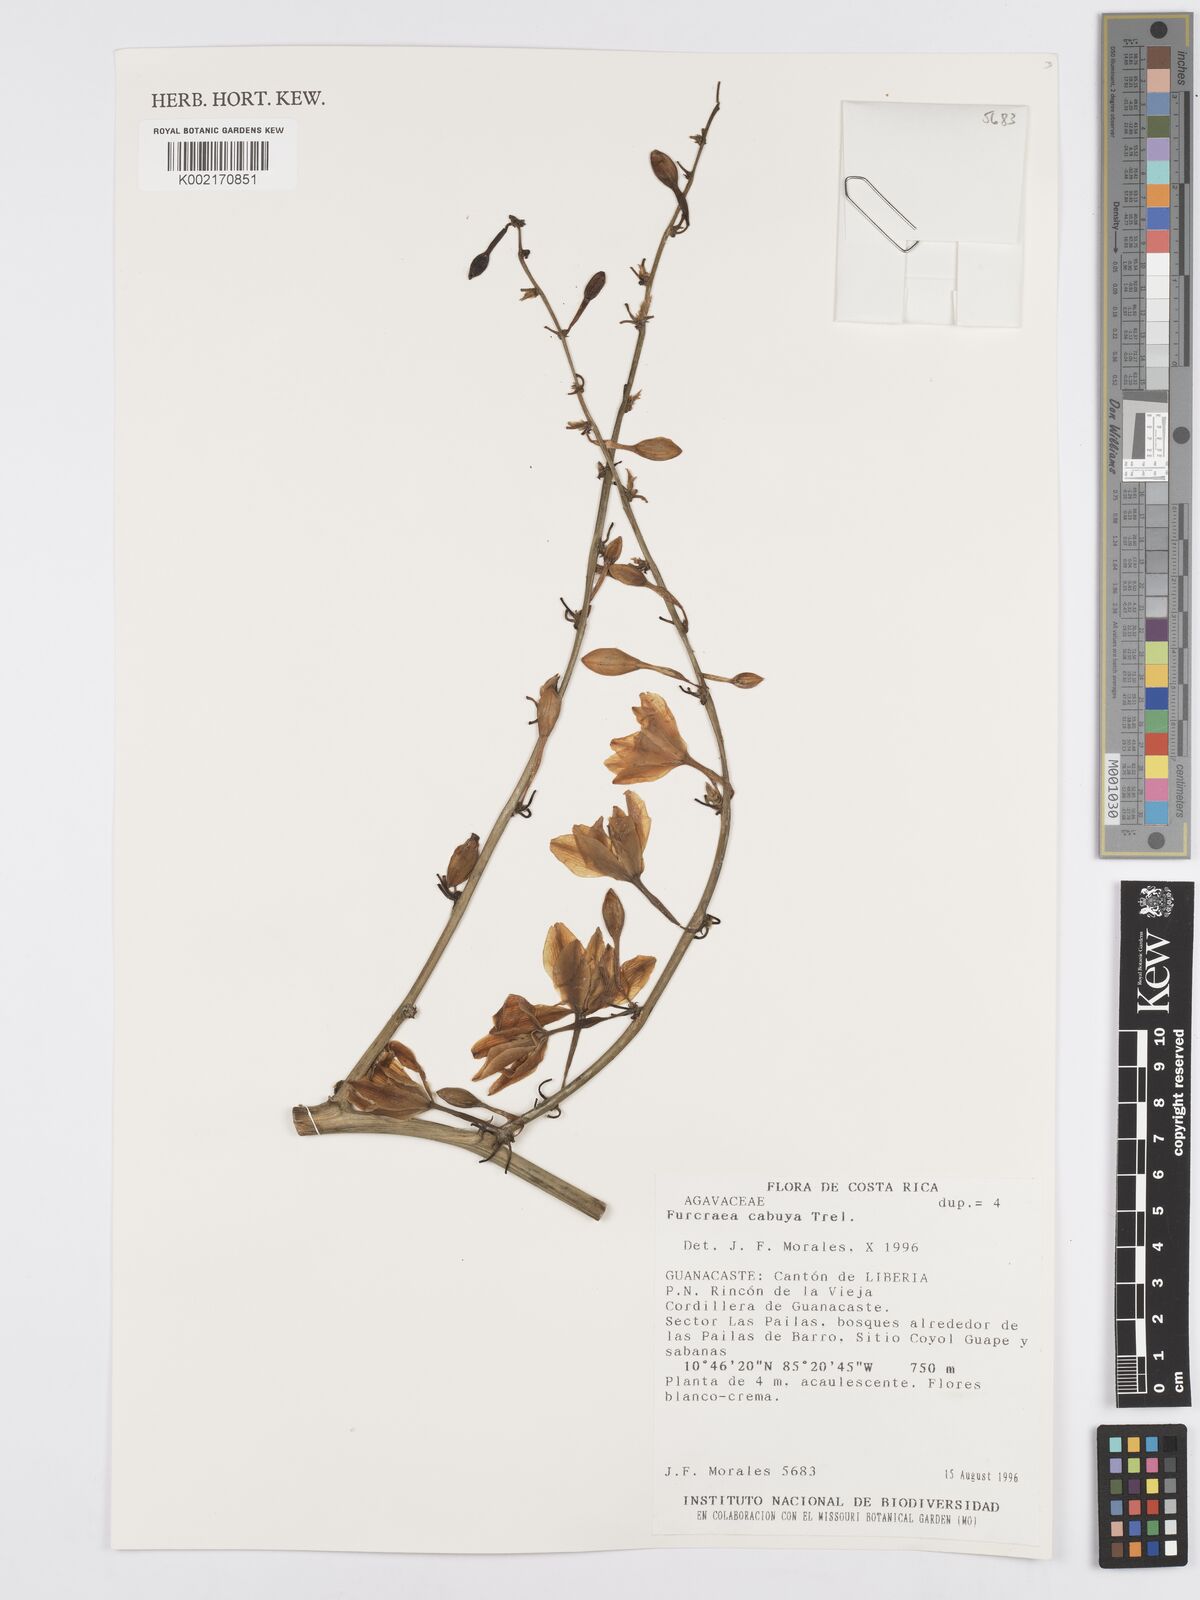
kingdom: Plantae
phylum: Tracheophyta
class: Liliopsida
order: Asparagales
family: Asparagaceae
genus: Furcraea
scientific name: Furcraea cabuya
